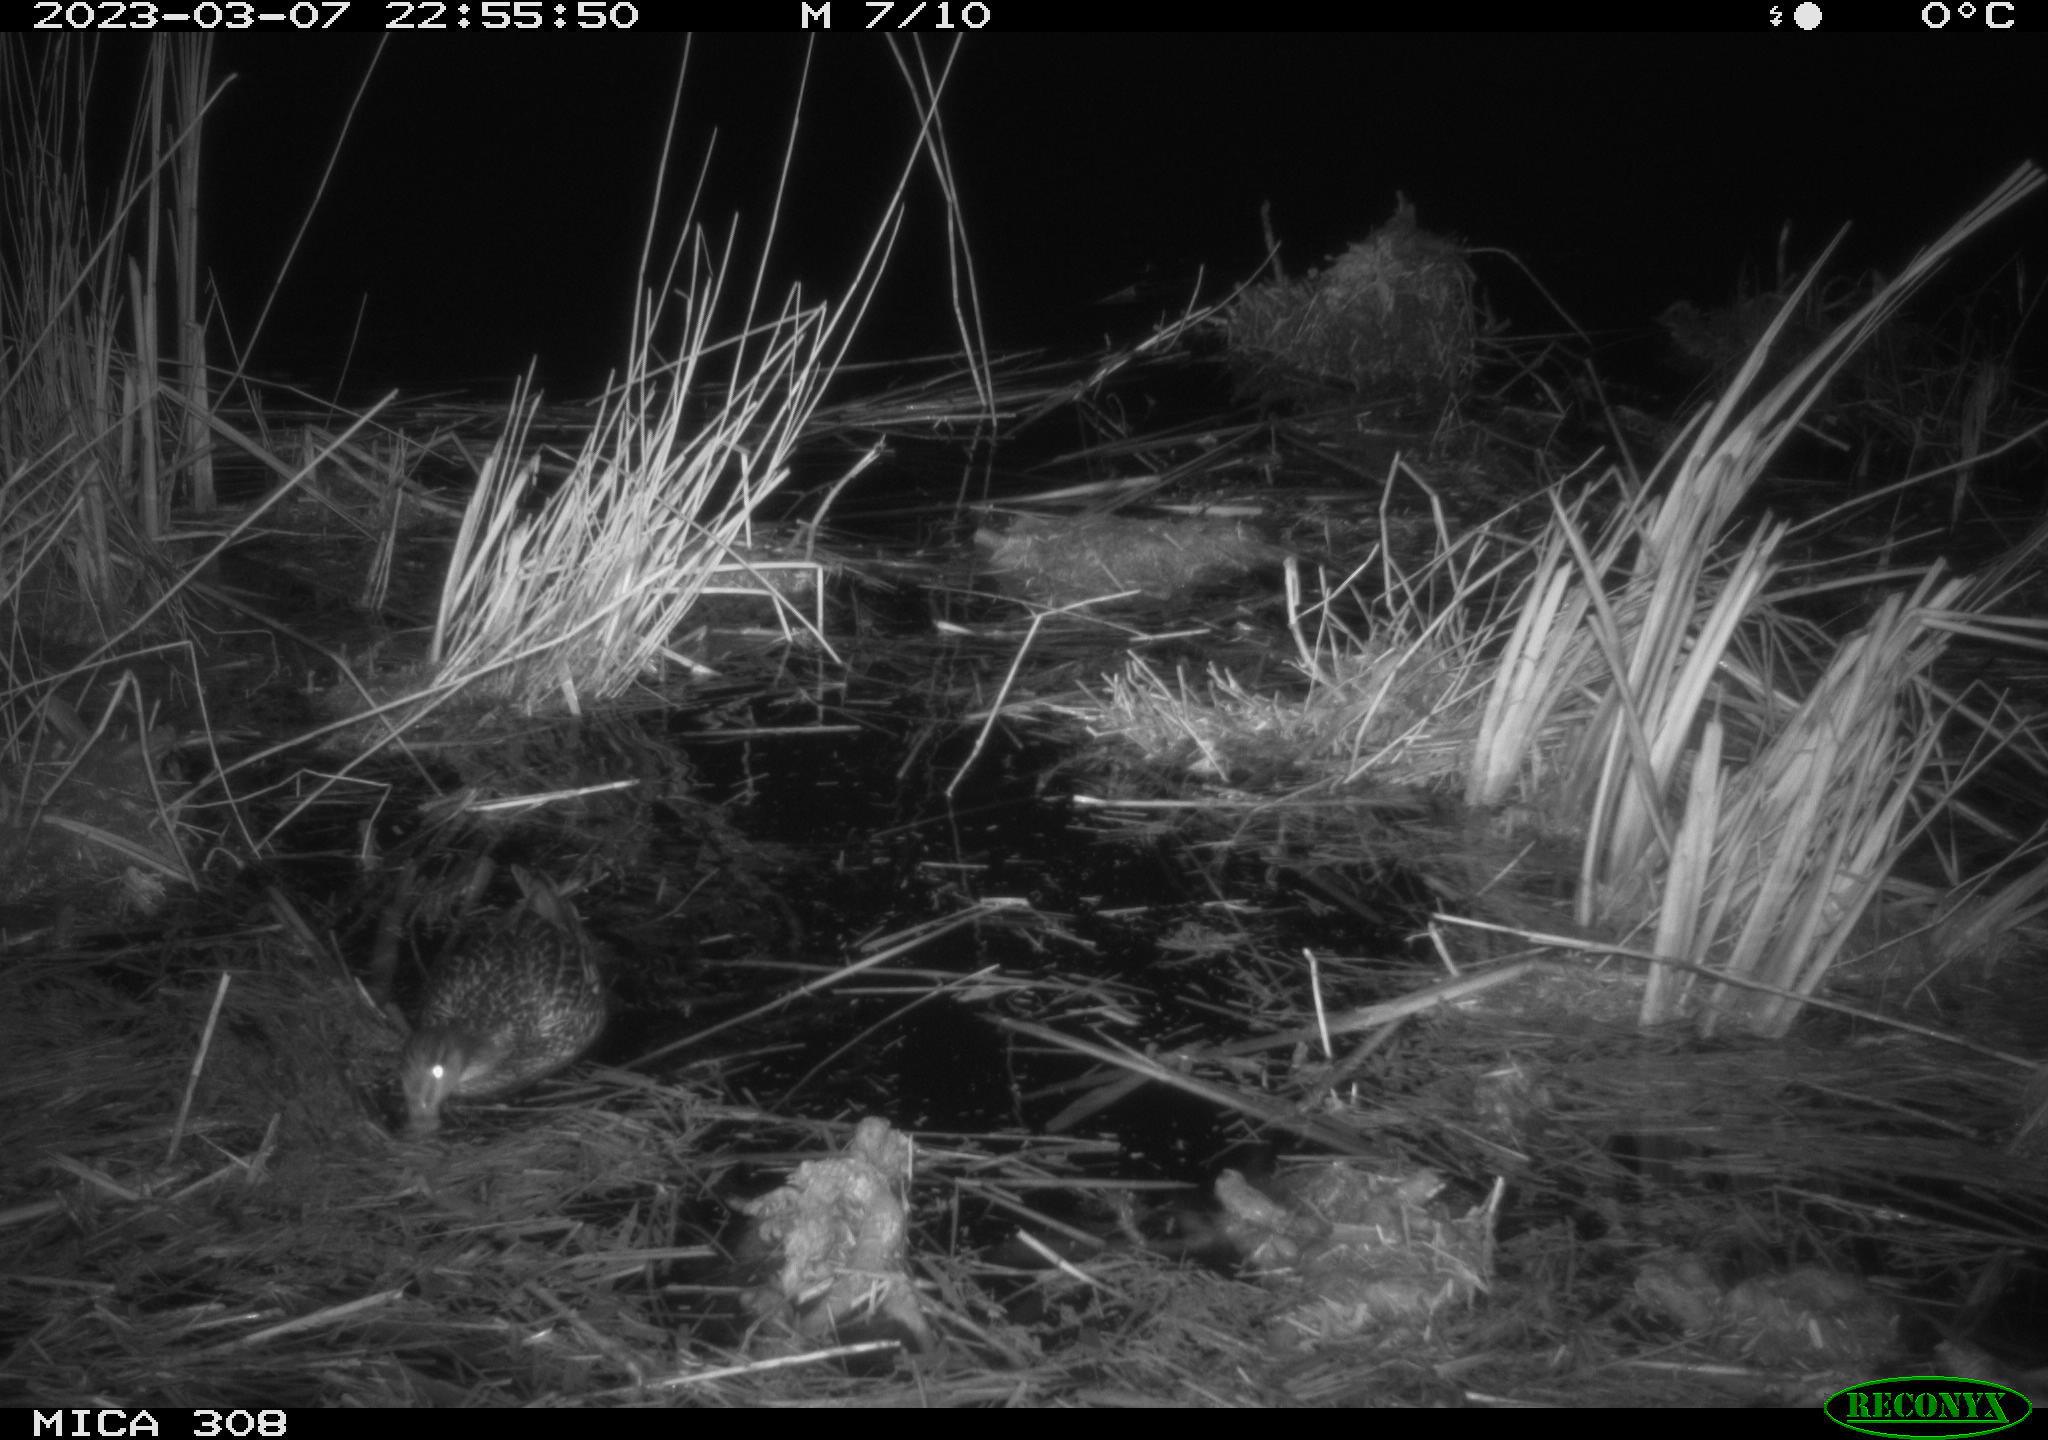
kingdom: Animalia
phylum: Chordata
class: Mammalia
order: Rodentia
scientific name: Rodentia
